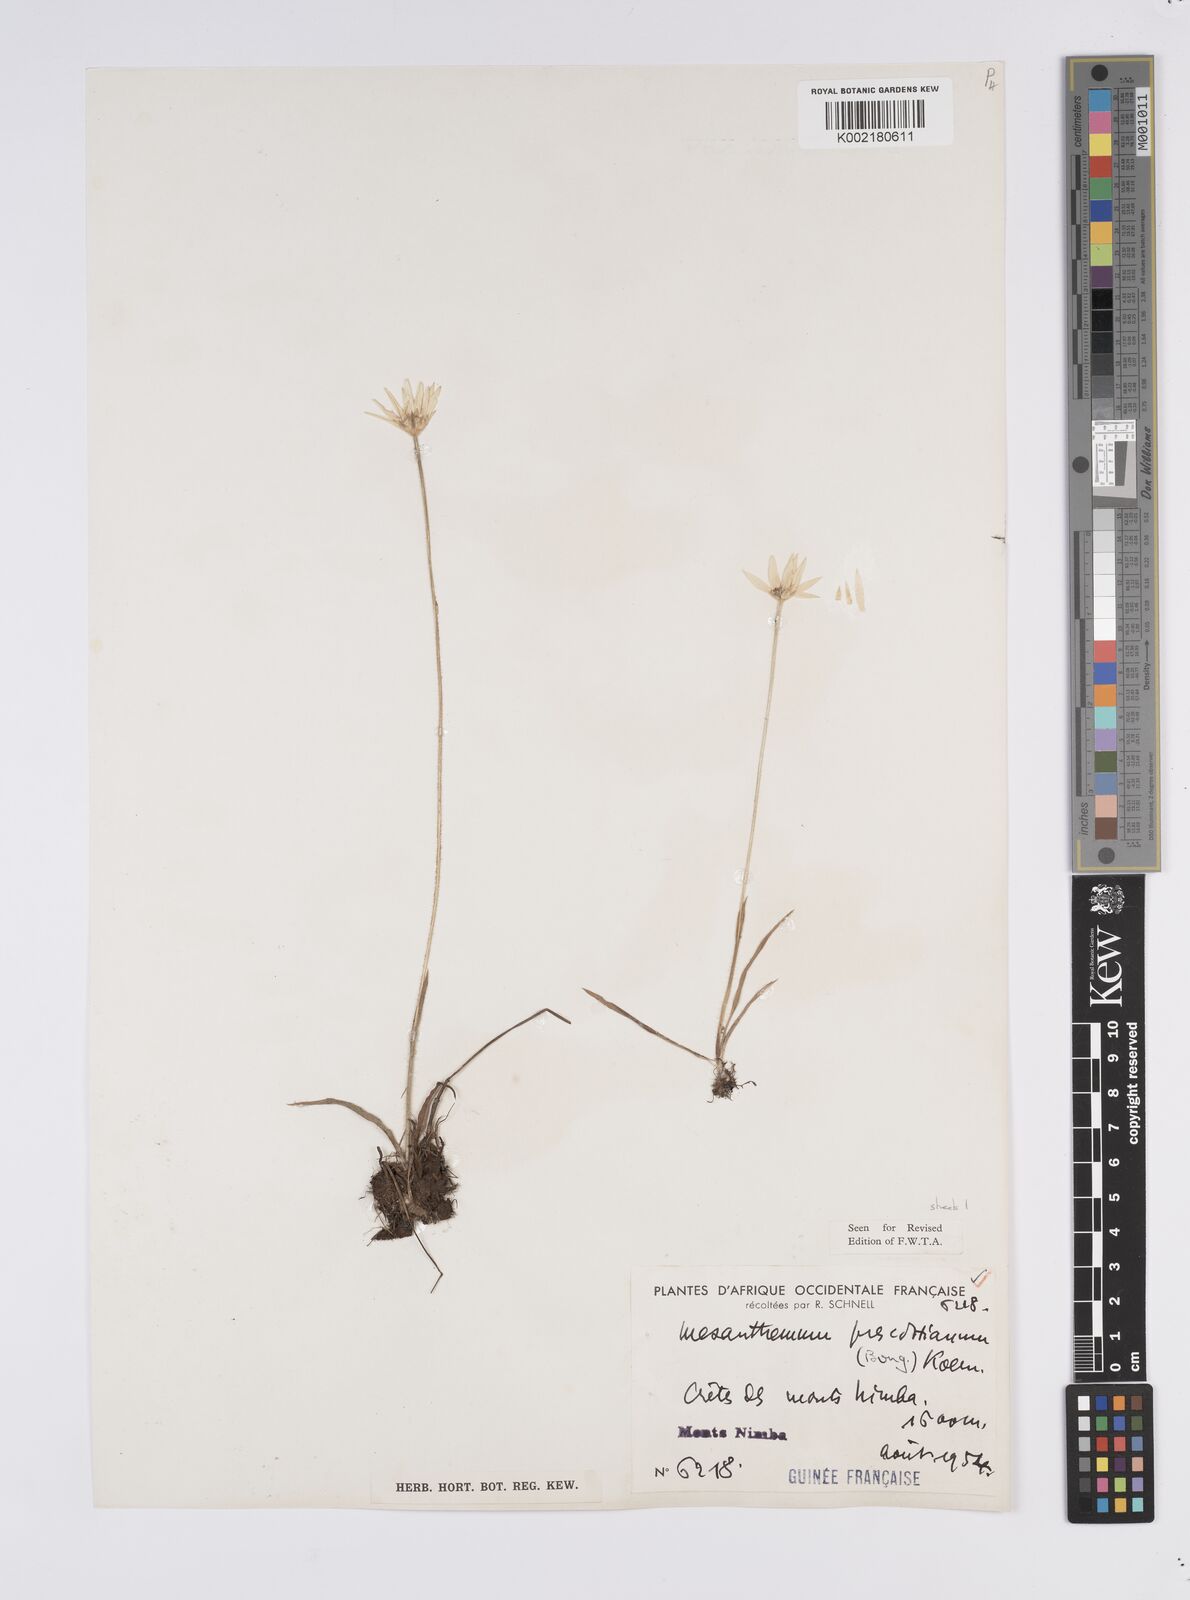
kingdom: Plantae
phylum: Tracheophyta
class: Liliopsida
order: Poales
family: Eriocaulaceae
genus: Mesanthemum
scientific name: Mesanthemum prescottianum
